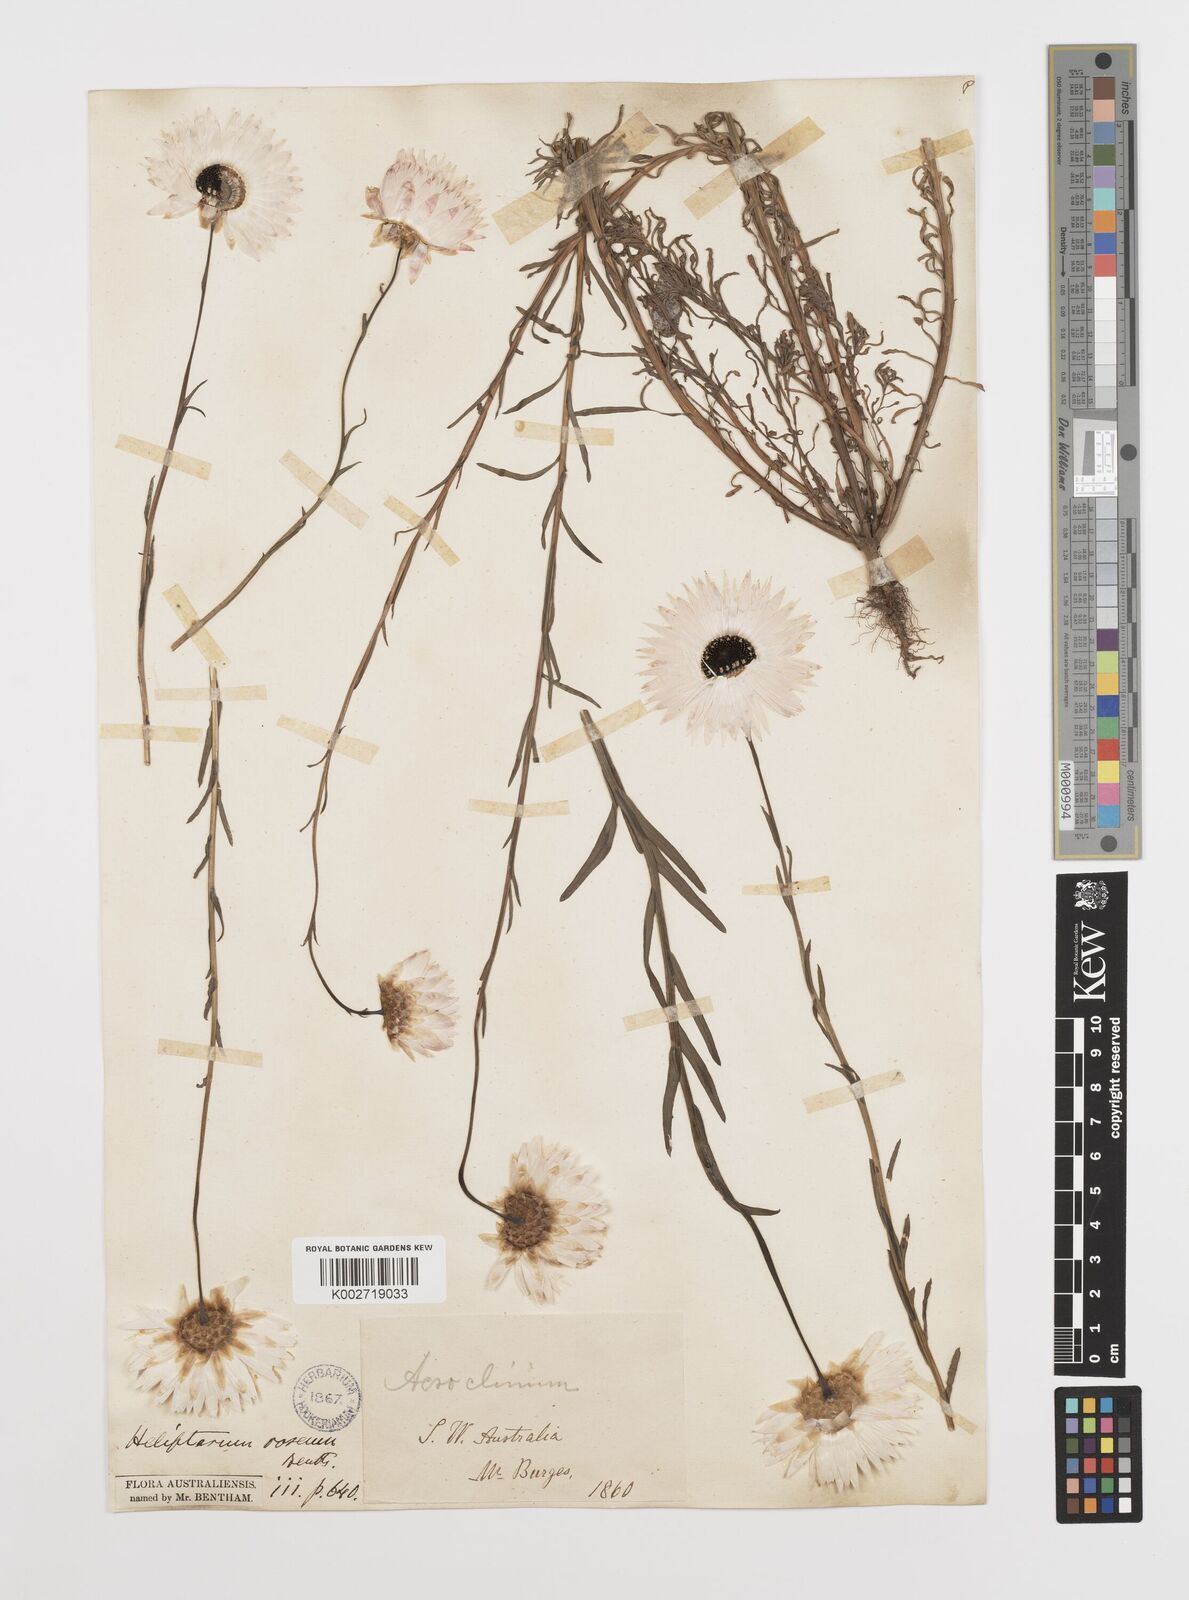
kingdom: Plantae
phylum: Tracheophyta
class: Magnoliopsida
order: Asterales
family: Asteraceae
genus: Rhodanthe
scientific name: Rhodanthe chlorocephala
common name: Rosy sunray
